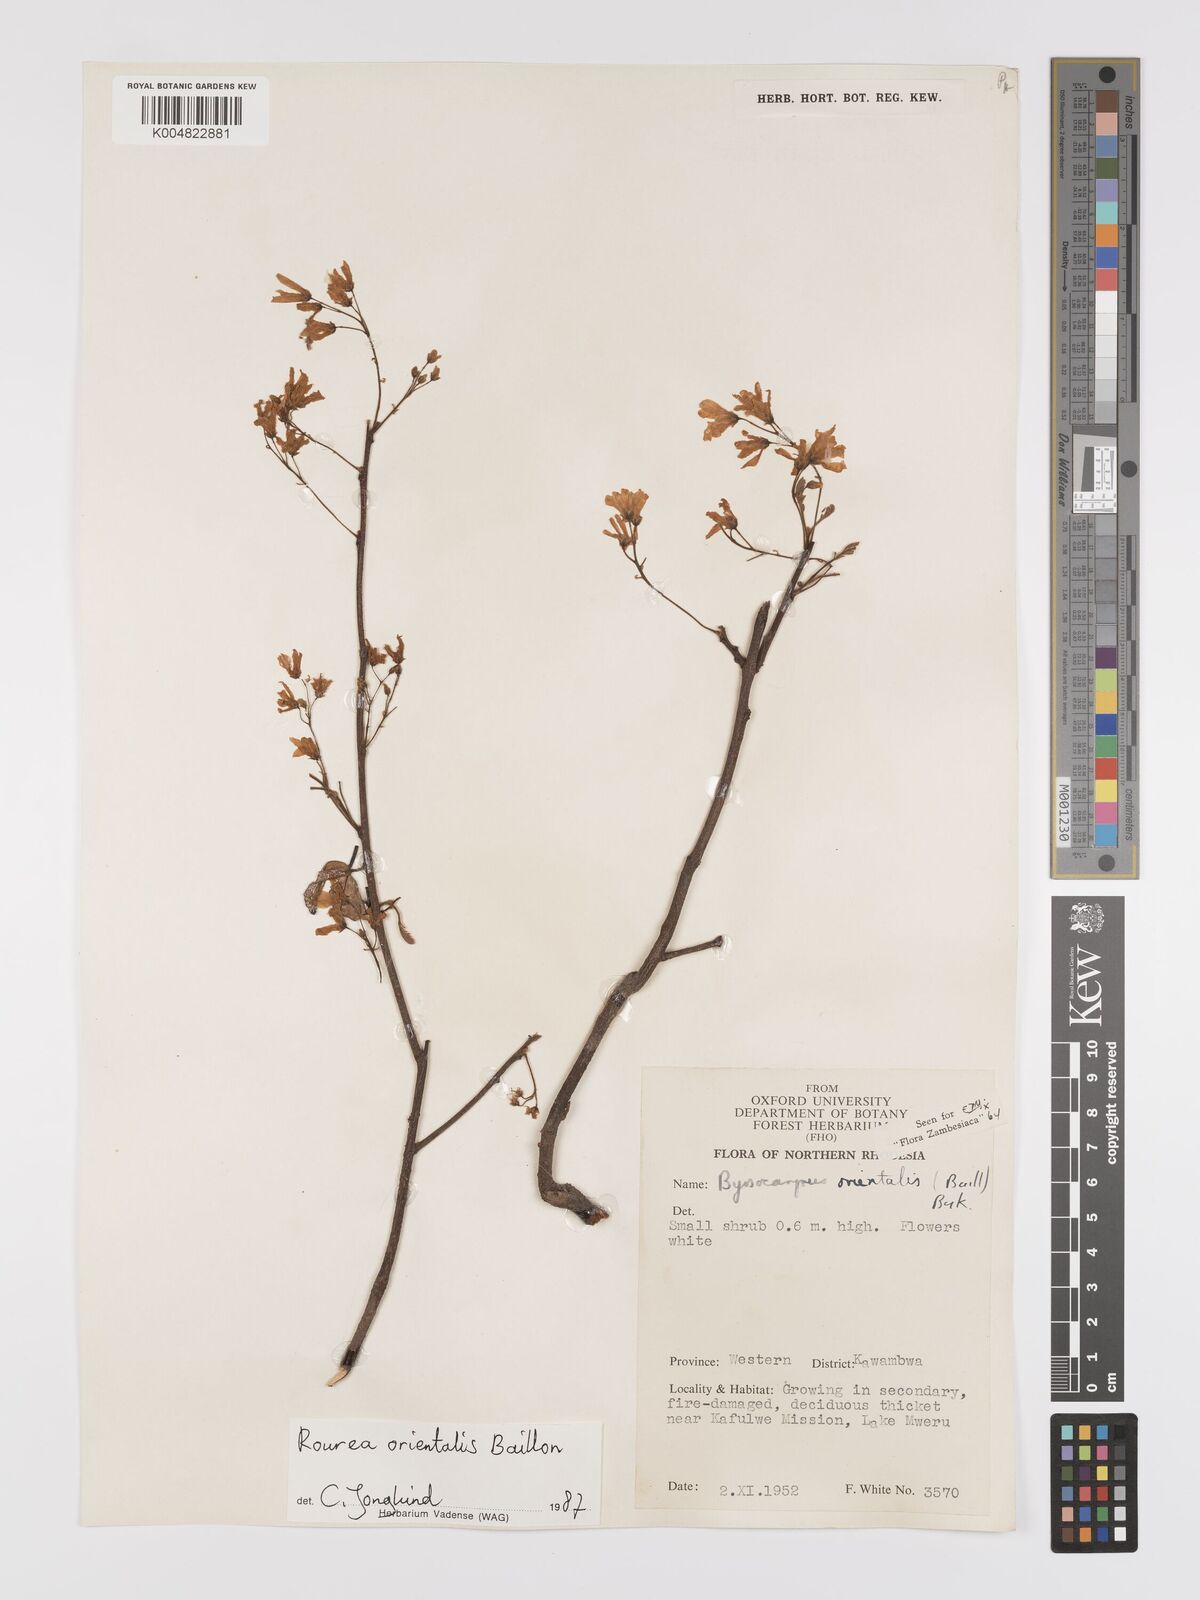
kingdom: Plantae
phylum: Tracheophyta
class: Magnoliopsida
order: Oxalidales
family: Connaraceae
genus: Rourea
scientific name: Rourea orientalis
